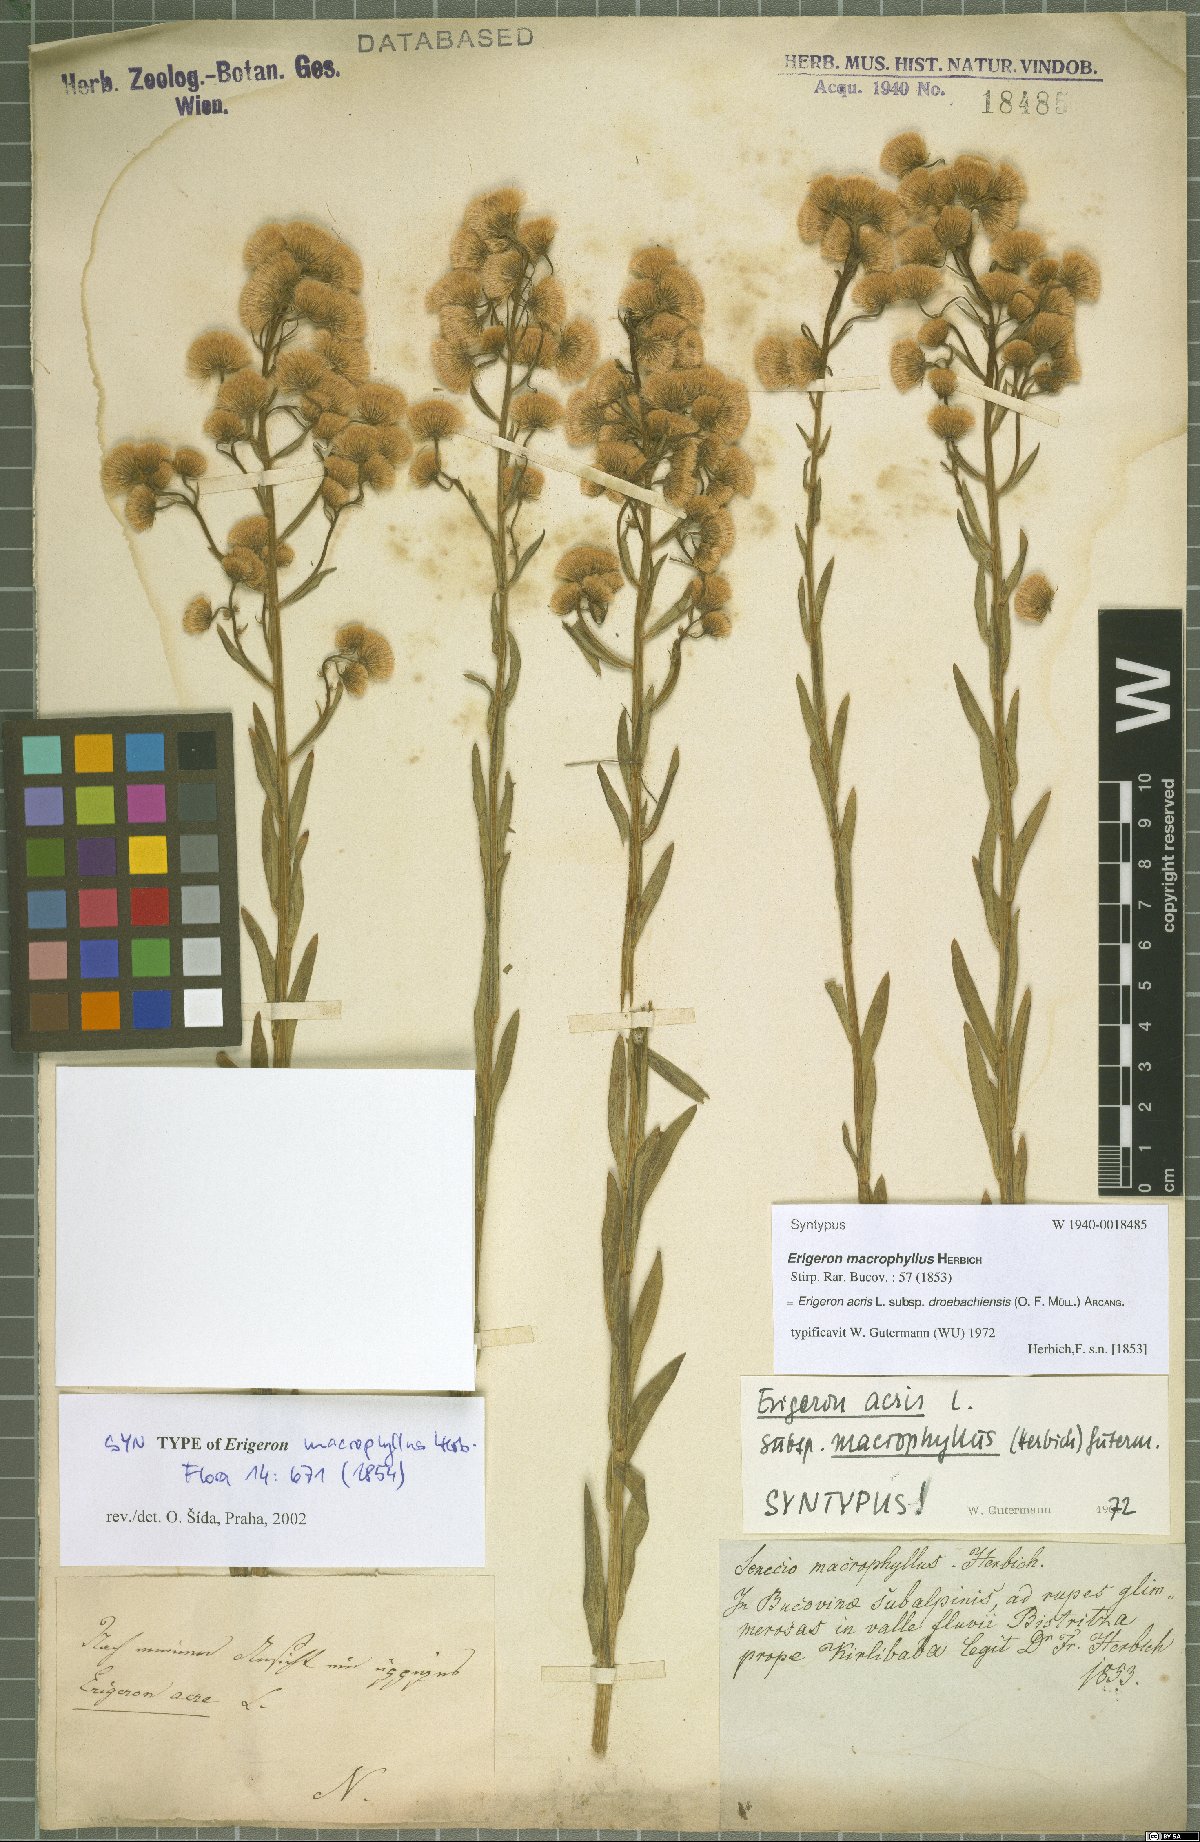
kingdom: Plantae
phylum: Tracheophyta
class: Magnoliopsida
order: Asterales
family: Asteraceae
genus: Erigeron
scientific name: Erigeron droebachiensis
